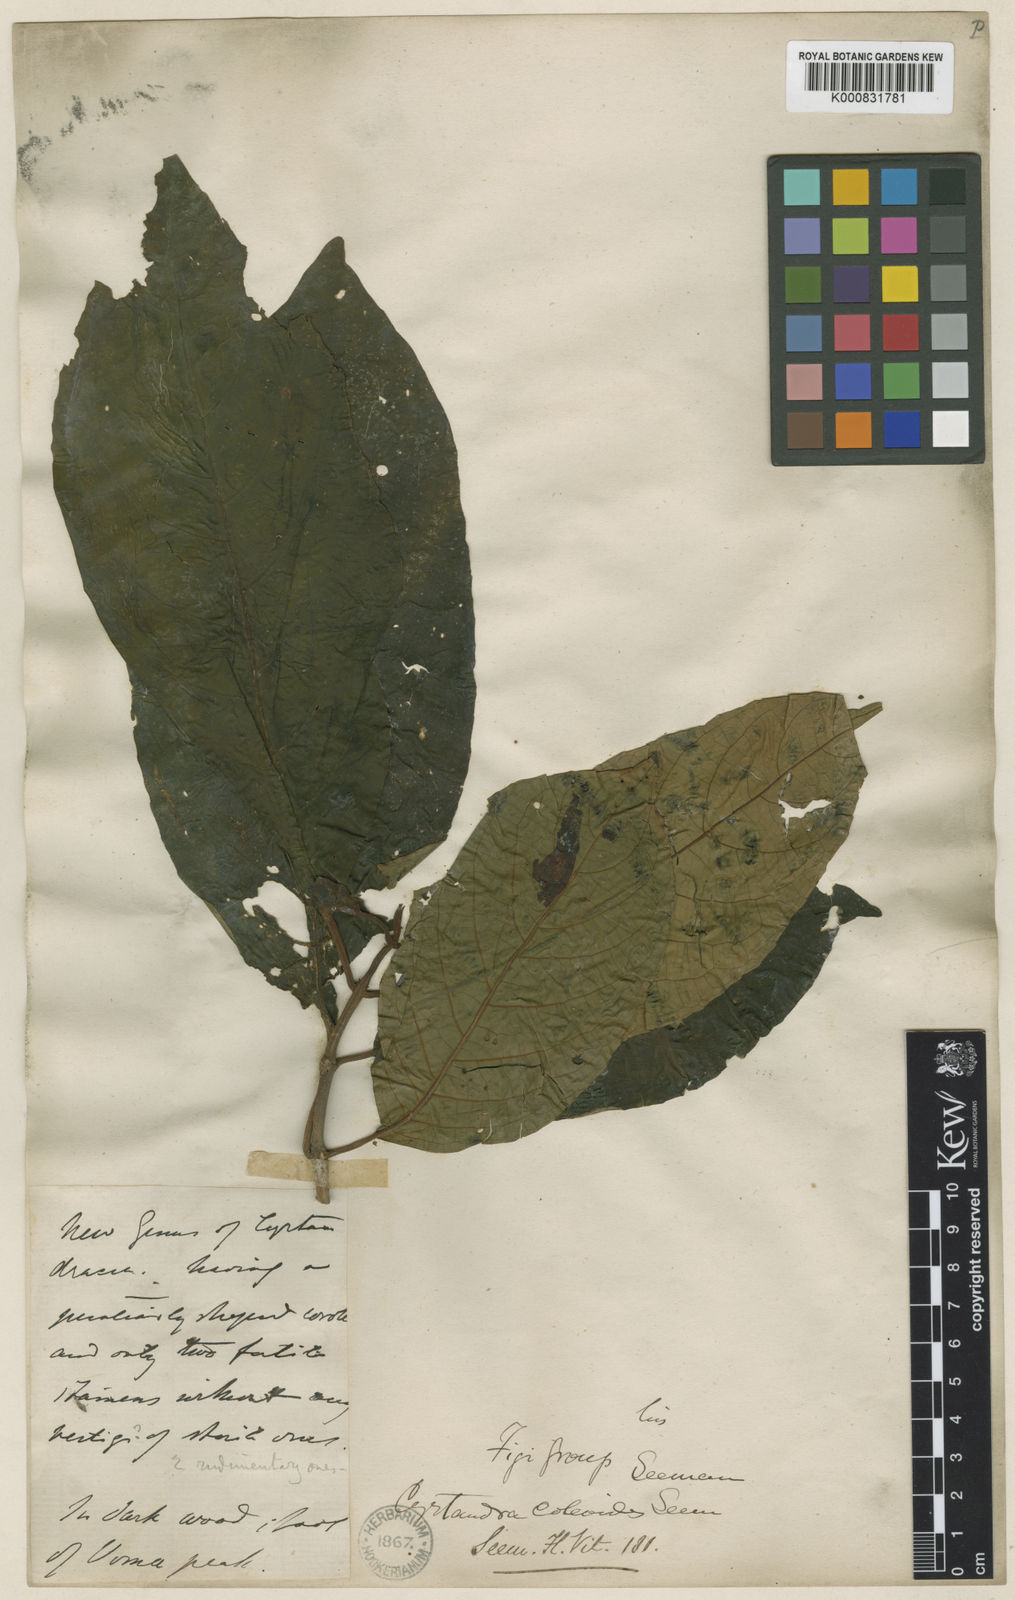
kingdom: Plantae
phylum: Tracheophyta
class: Magnoliopsida
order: Lamiales
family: Gesneriaceae
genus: Cyrtandra
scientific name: Cyrtandra coleoides
